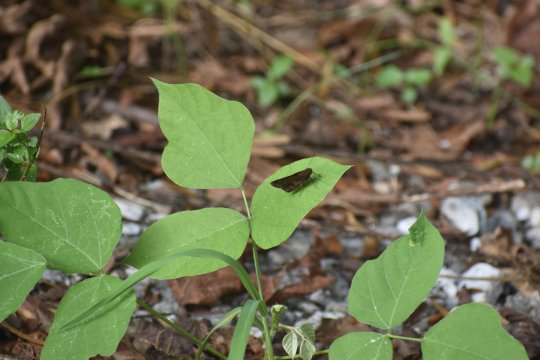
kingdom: Animalia
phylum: Arthropoda
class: Insecta
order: Lepidoptera
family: Hesperiidae
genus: Lerema
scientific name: Lerema accius
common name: Clouded Skipper
